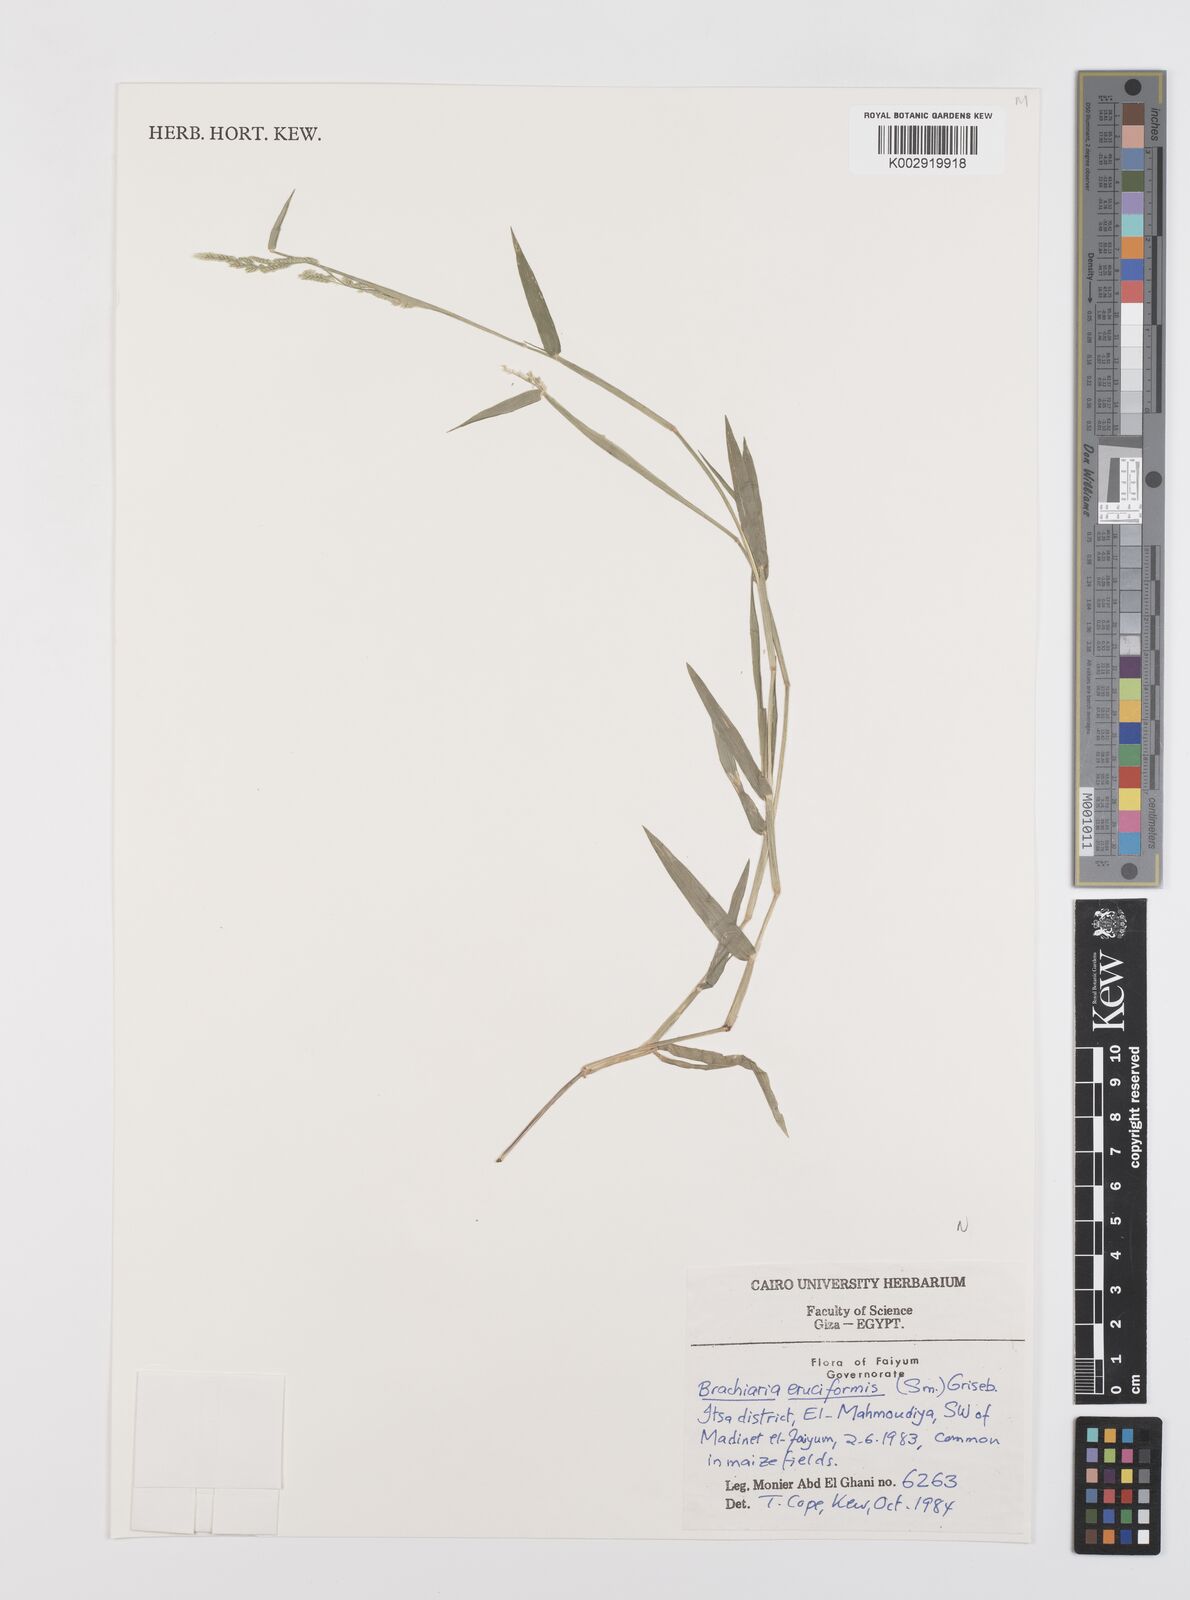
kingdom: Plantae
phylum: Tracheophyta
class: Liliopsida
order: Poales
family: Poaceae
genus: Moorochloa
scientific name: Moorochloa eruciformis
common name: Sweet signalgrass
